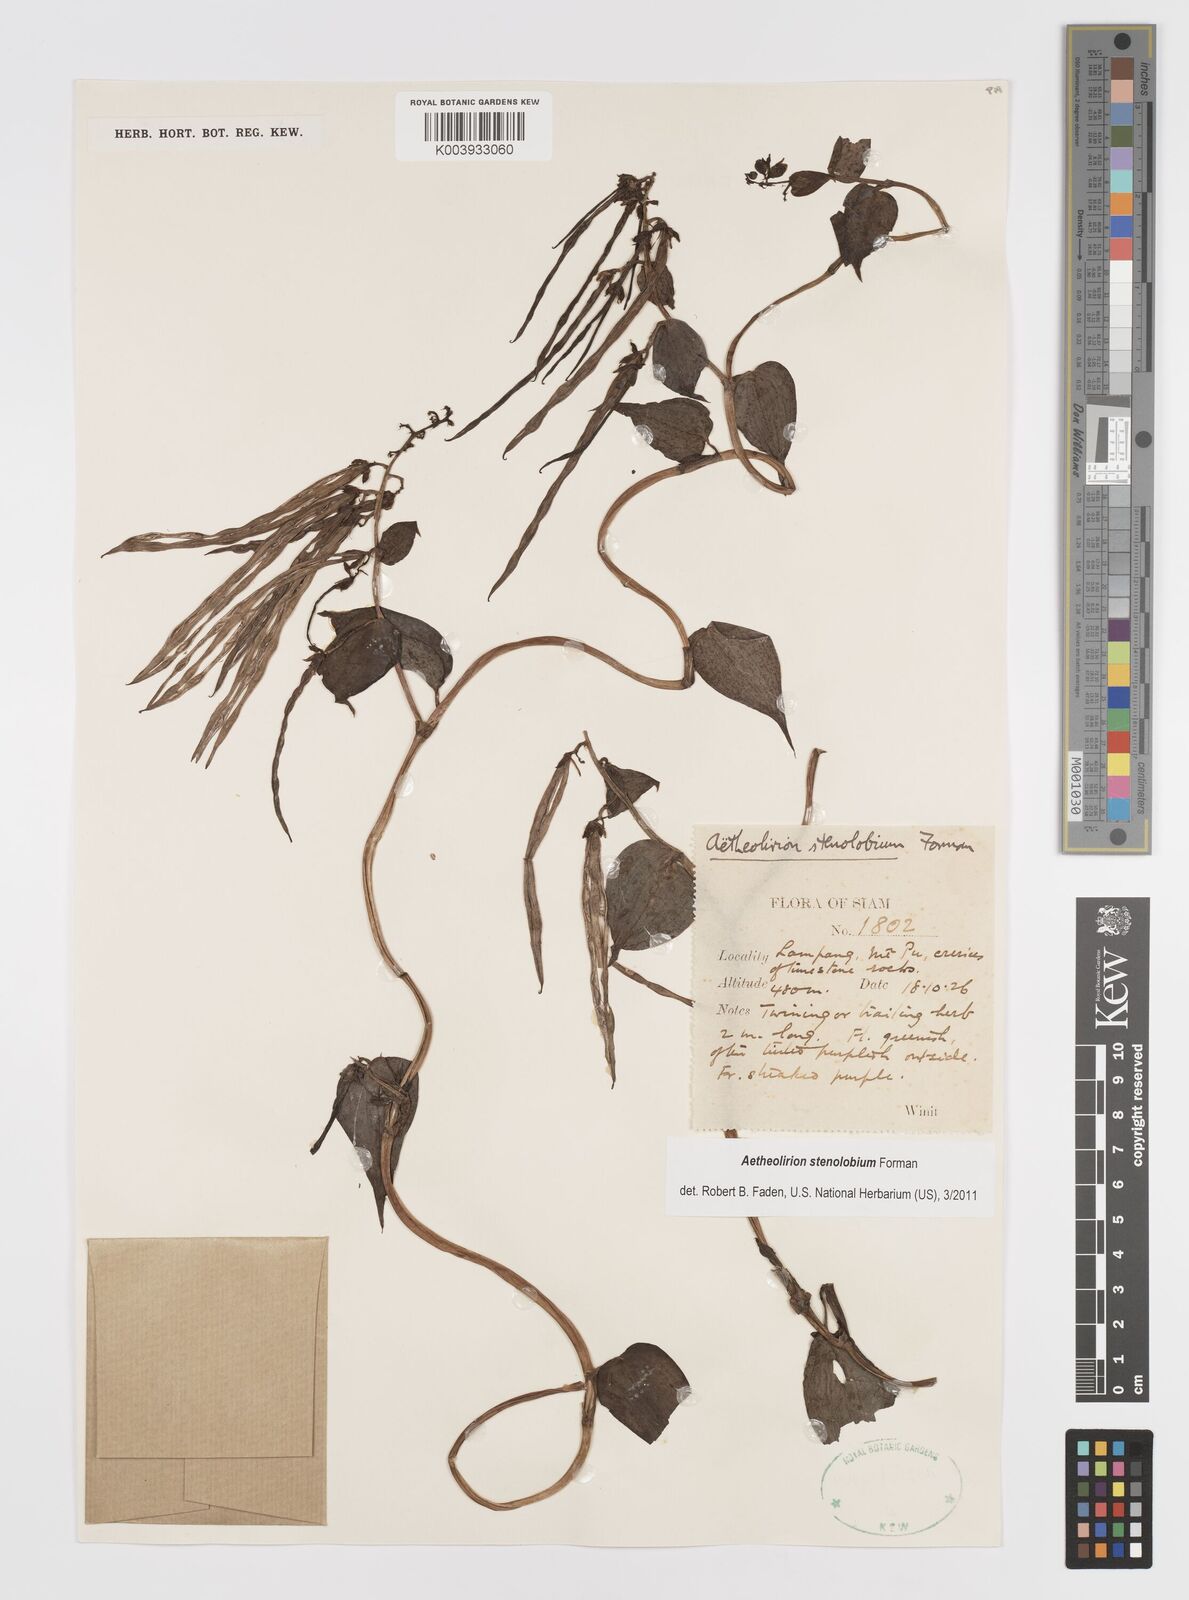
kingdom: Plantae
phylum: Tracheophyta
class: Liliopsida
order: Commelinales
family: Commelinaceae
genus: Aetheolirion
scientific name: Aetheolirion stenolobium
